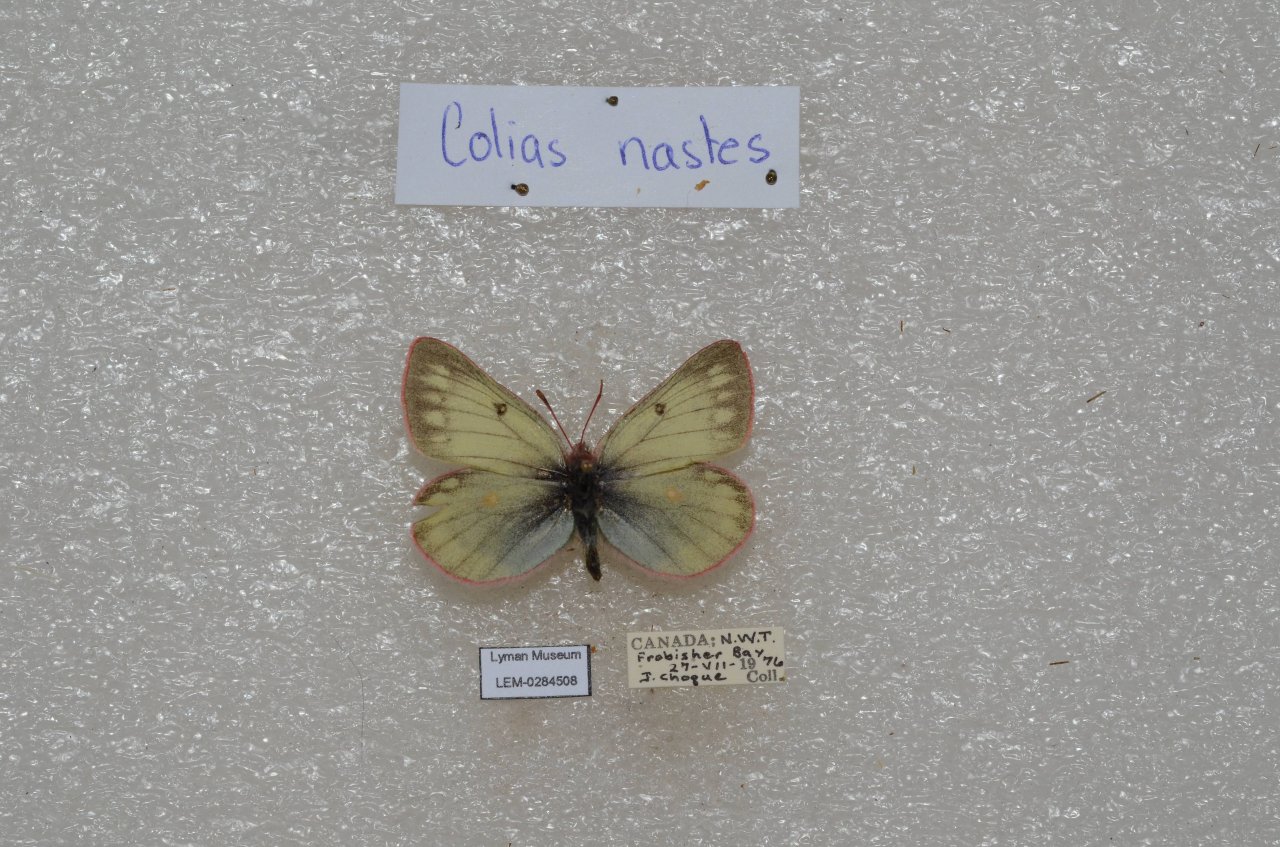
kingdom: Animalia
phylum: Arthropoda
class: Insecta
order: Lepidoptera
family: Pieridae
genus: Colias
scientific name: Colias nastes
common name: Labrador Sulphur
